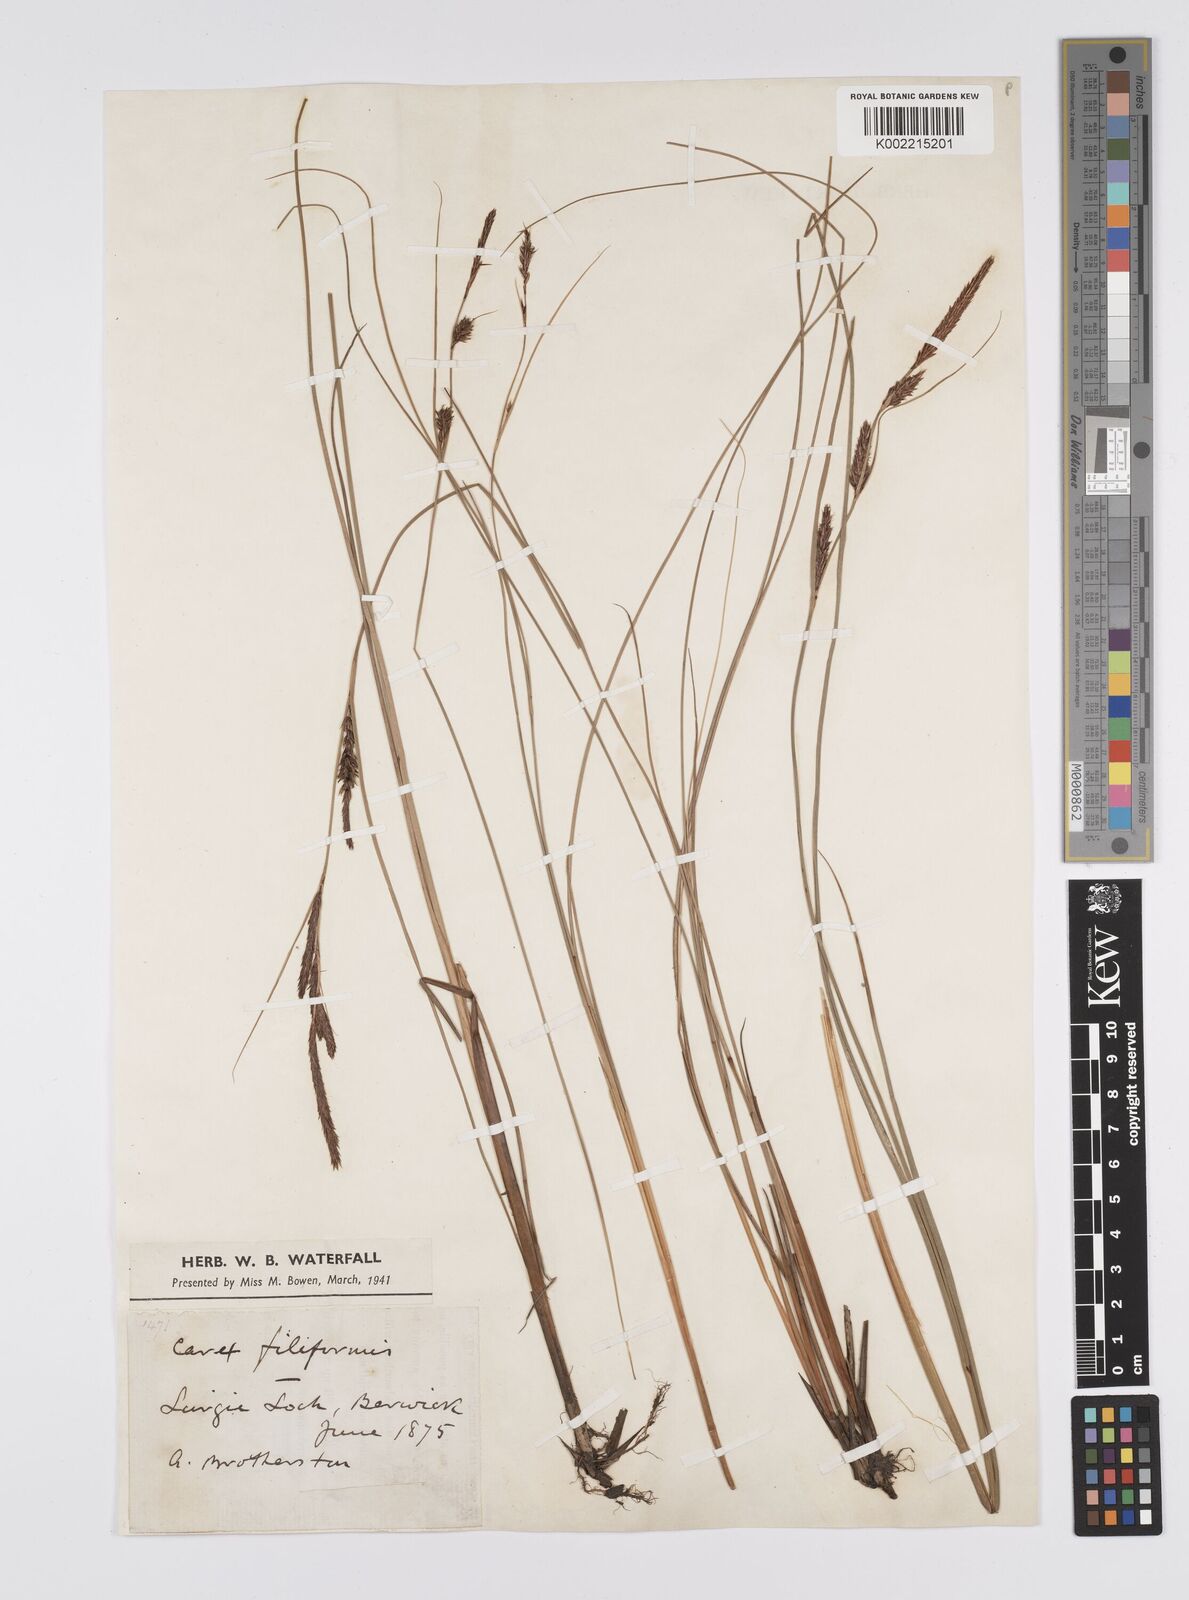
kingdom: Plantae
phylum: Tracheophyta
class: Liliopsida
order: Poales
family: Cyperaceae
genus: Carex
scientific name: Carex lasiocarpa
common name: Slender sedge
